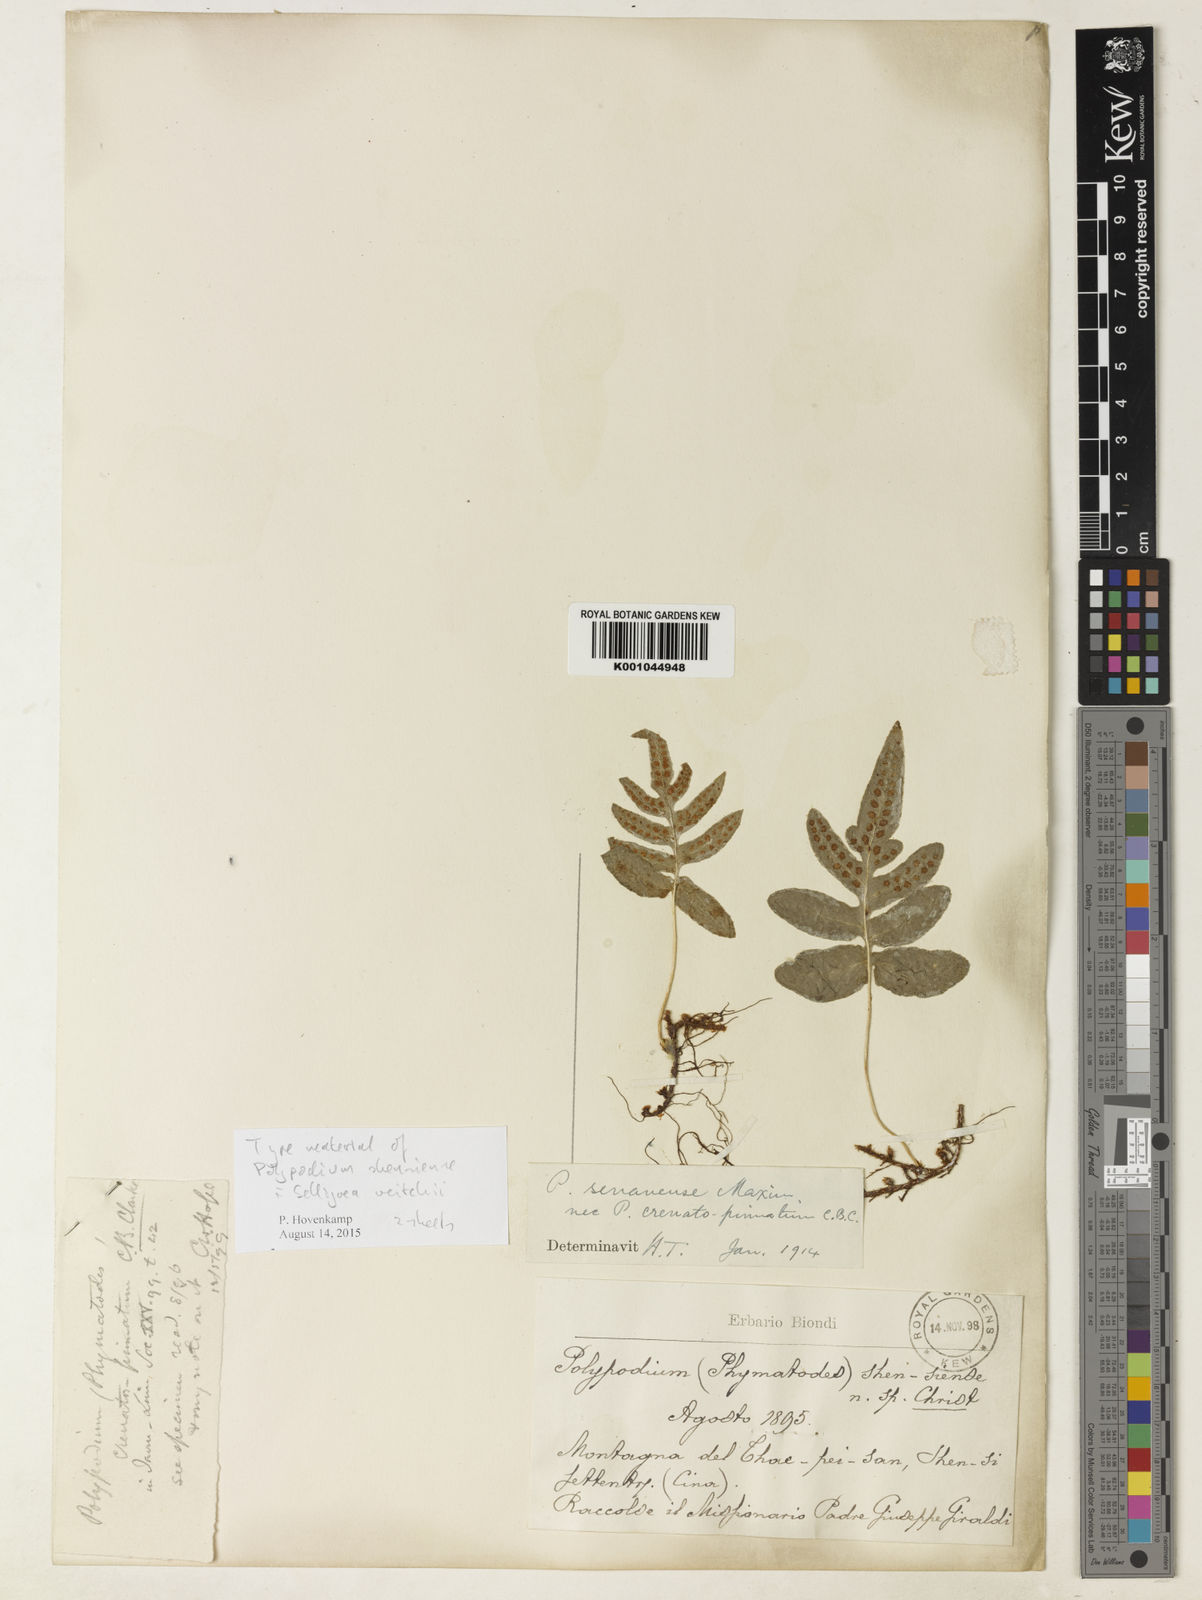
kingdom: Plantae
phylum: Tracheophyta
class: Polypodiopsida
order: Polypodiales
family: Polypodiaceae
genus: Selliguea
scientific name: Selliguea senanensis
